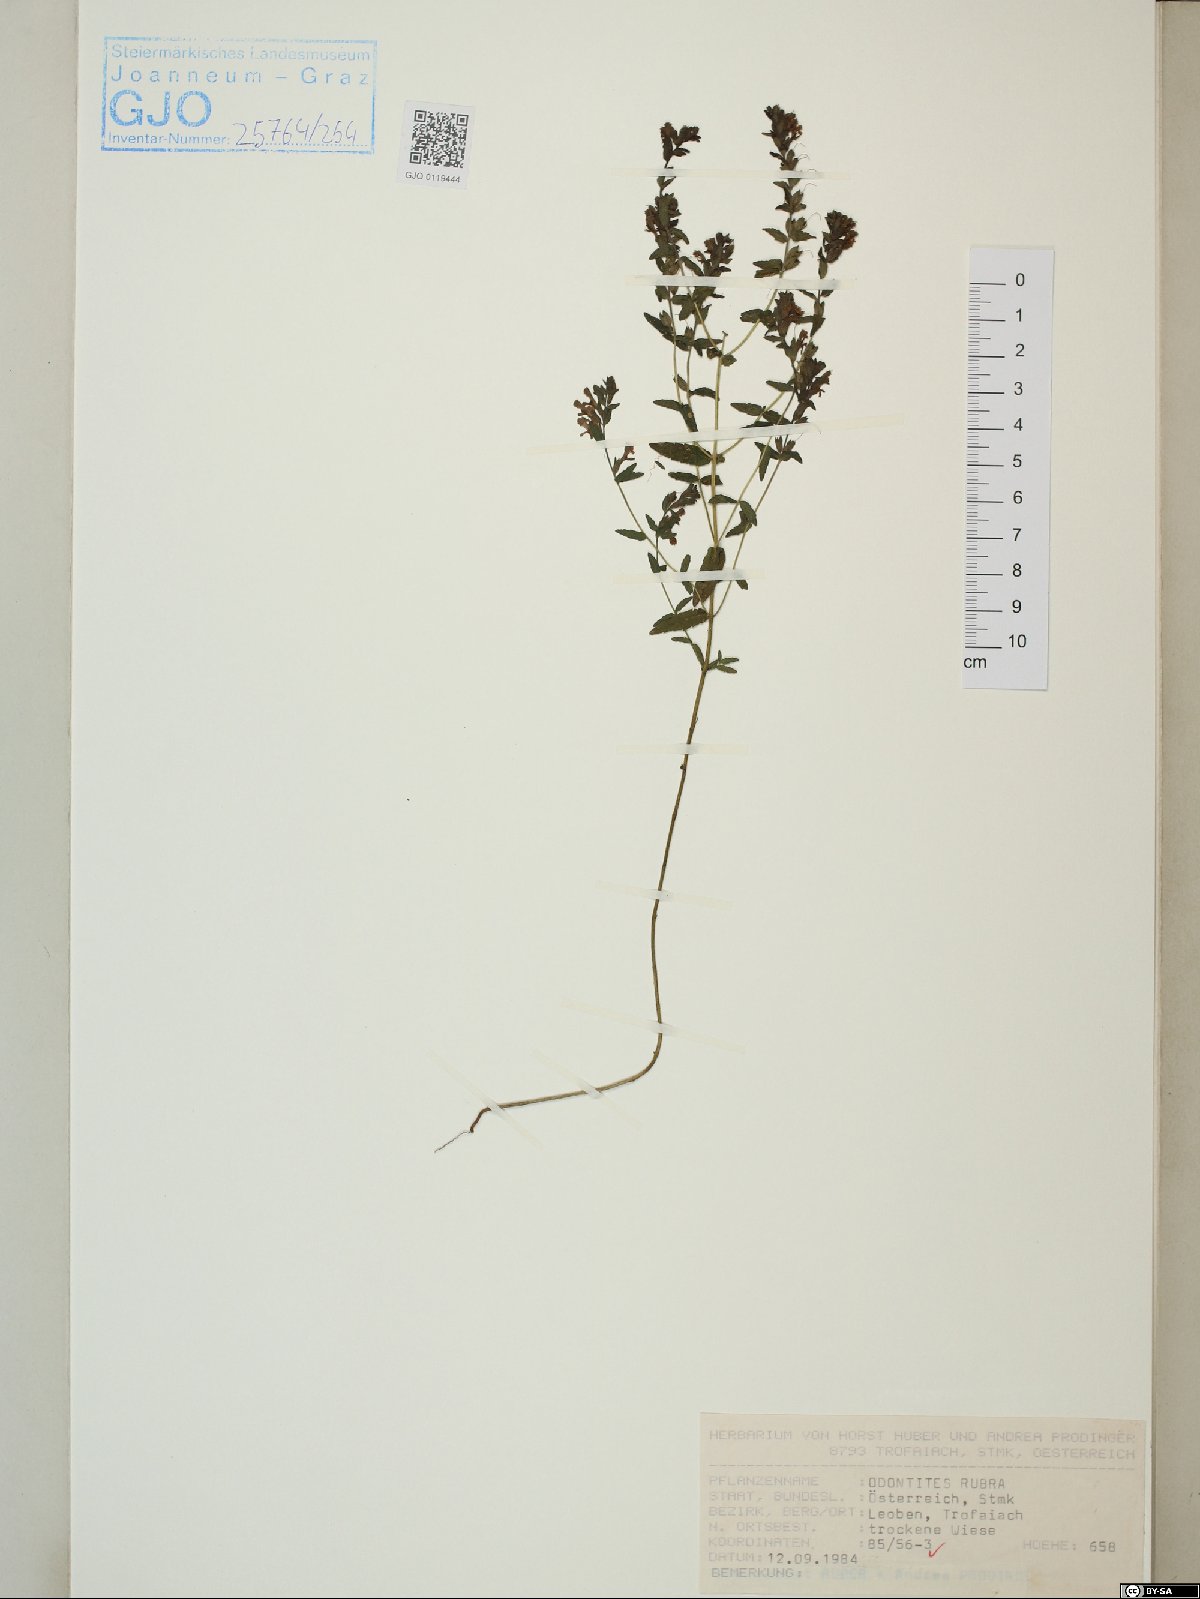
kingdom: Plantae
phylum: Tracheophyta
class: Magnoliopsida
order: Lamiales
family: Orobanchaceae
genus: Odontites
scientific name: Odontites vulgaris
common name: Broomrape
